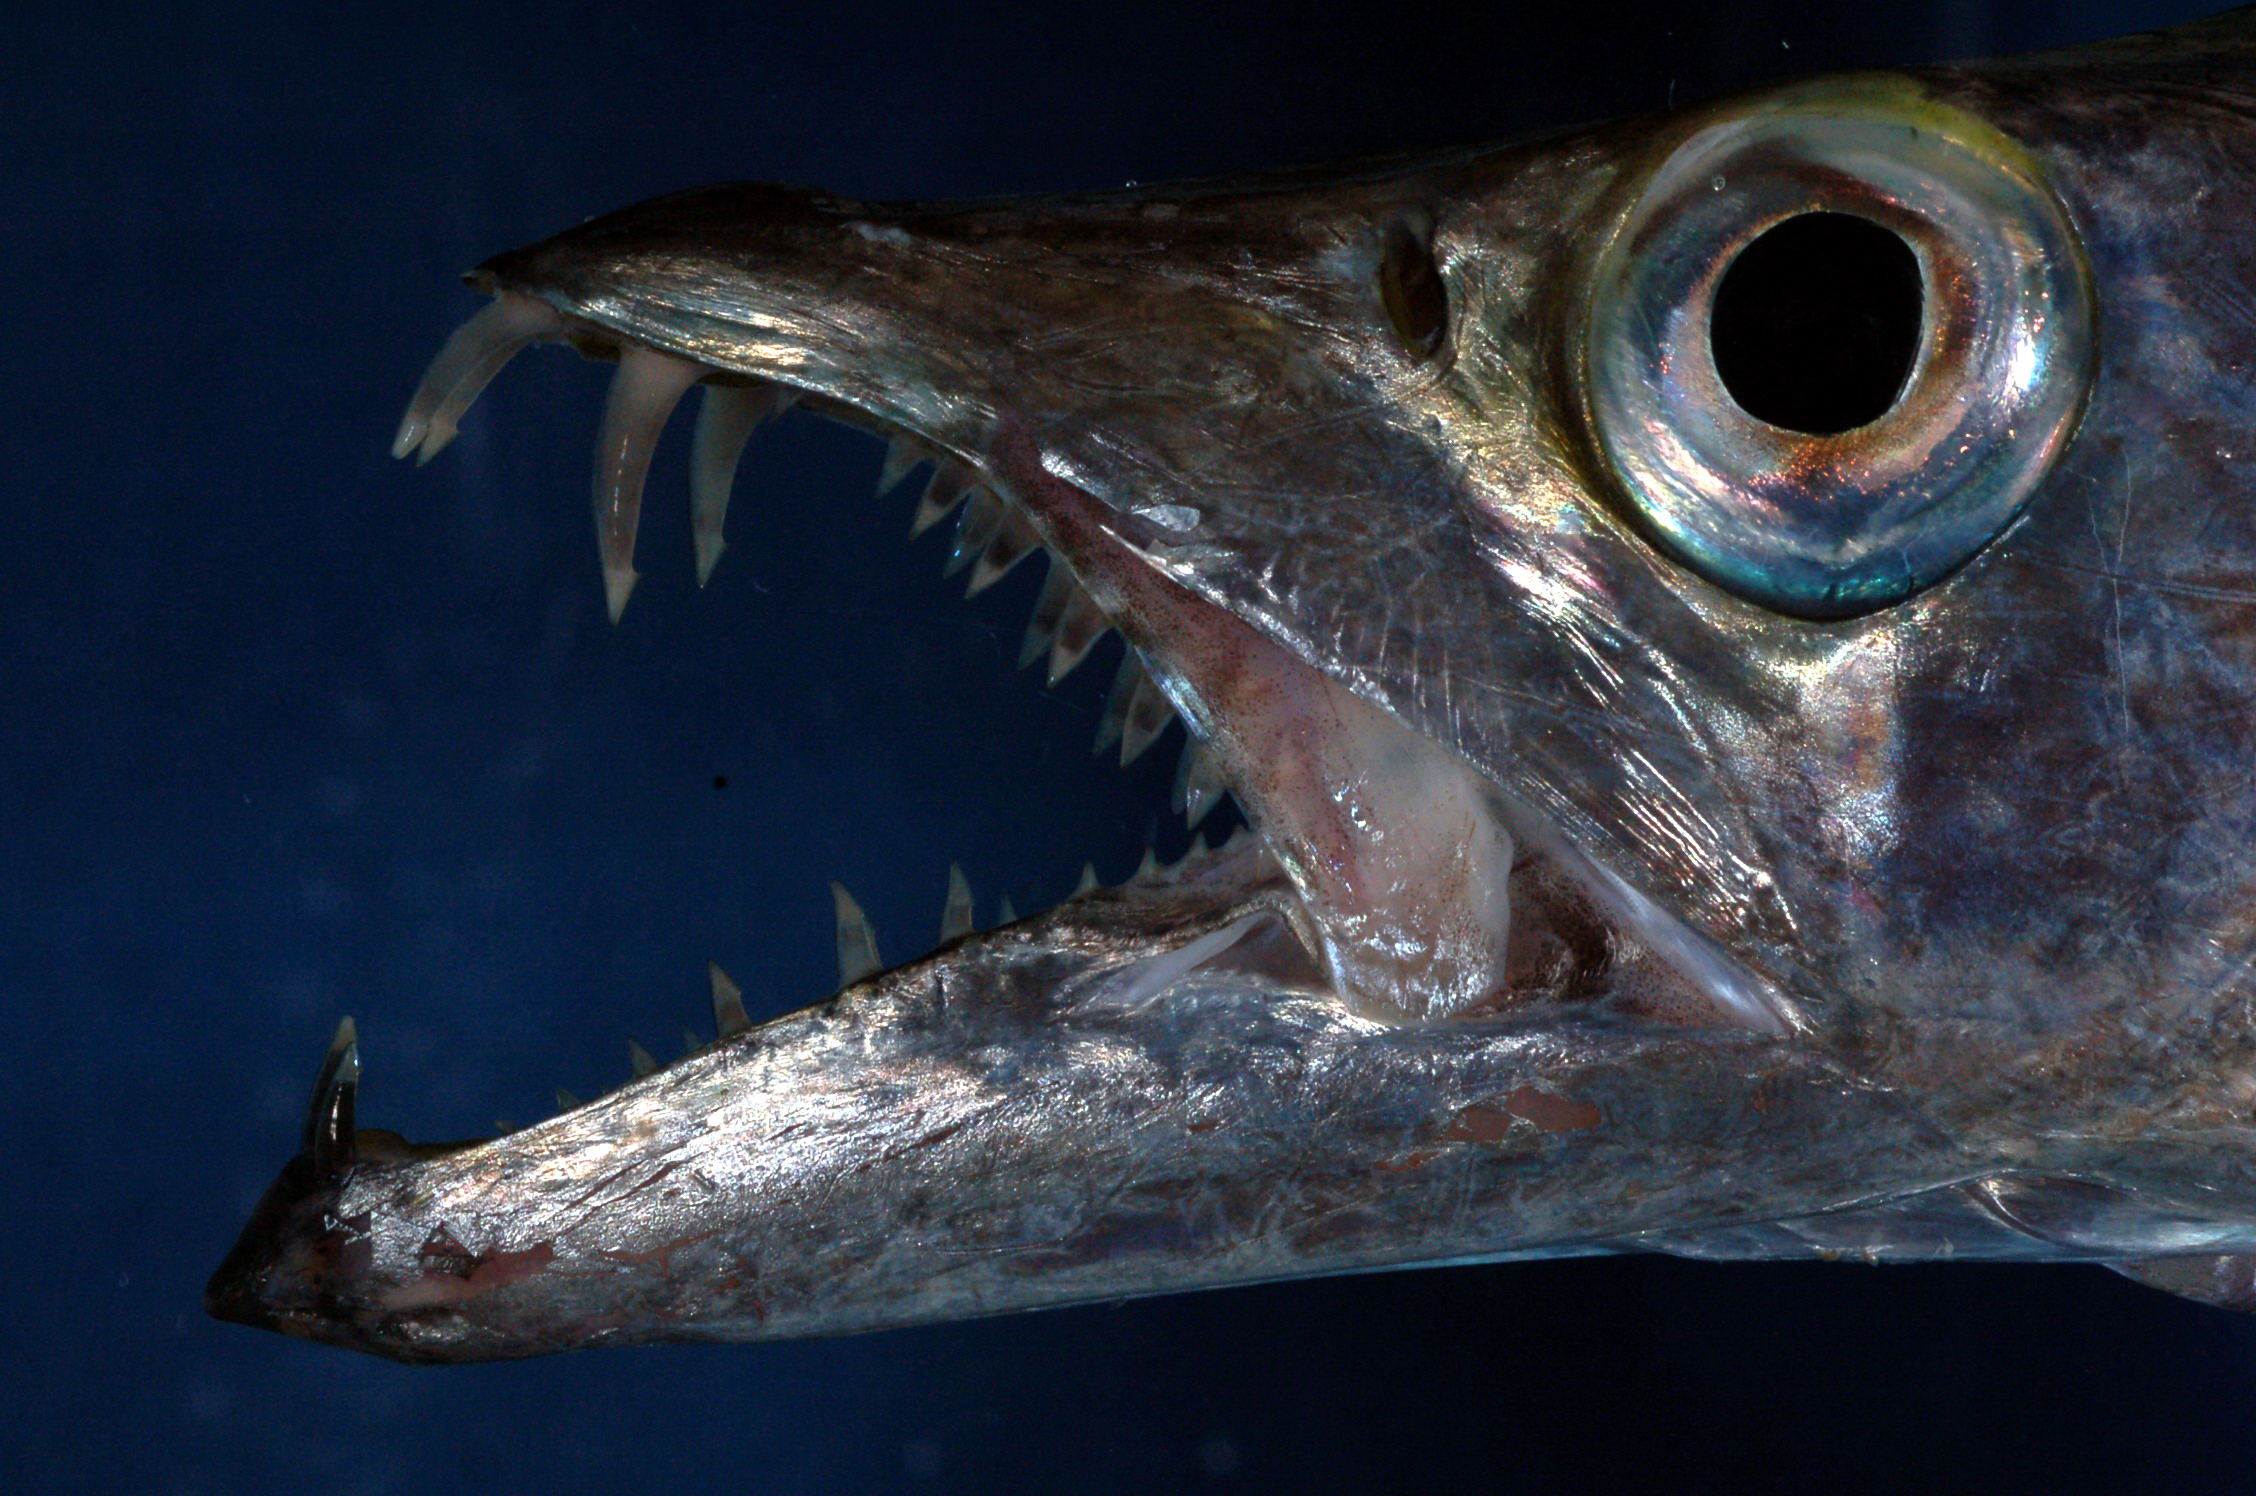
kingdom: Animalia
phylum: Chordata
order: Perciformes
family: Trichiuridae
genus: Trichiurus
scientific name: Trichiurus lepturus
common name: Largehead hairtail
